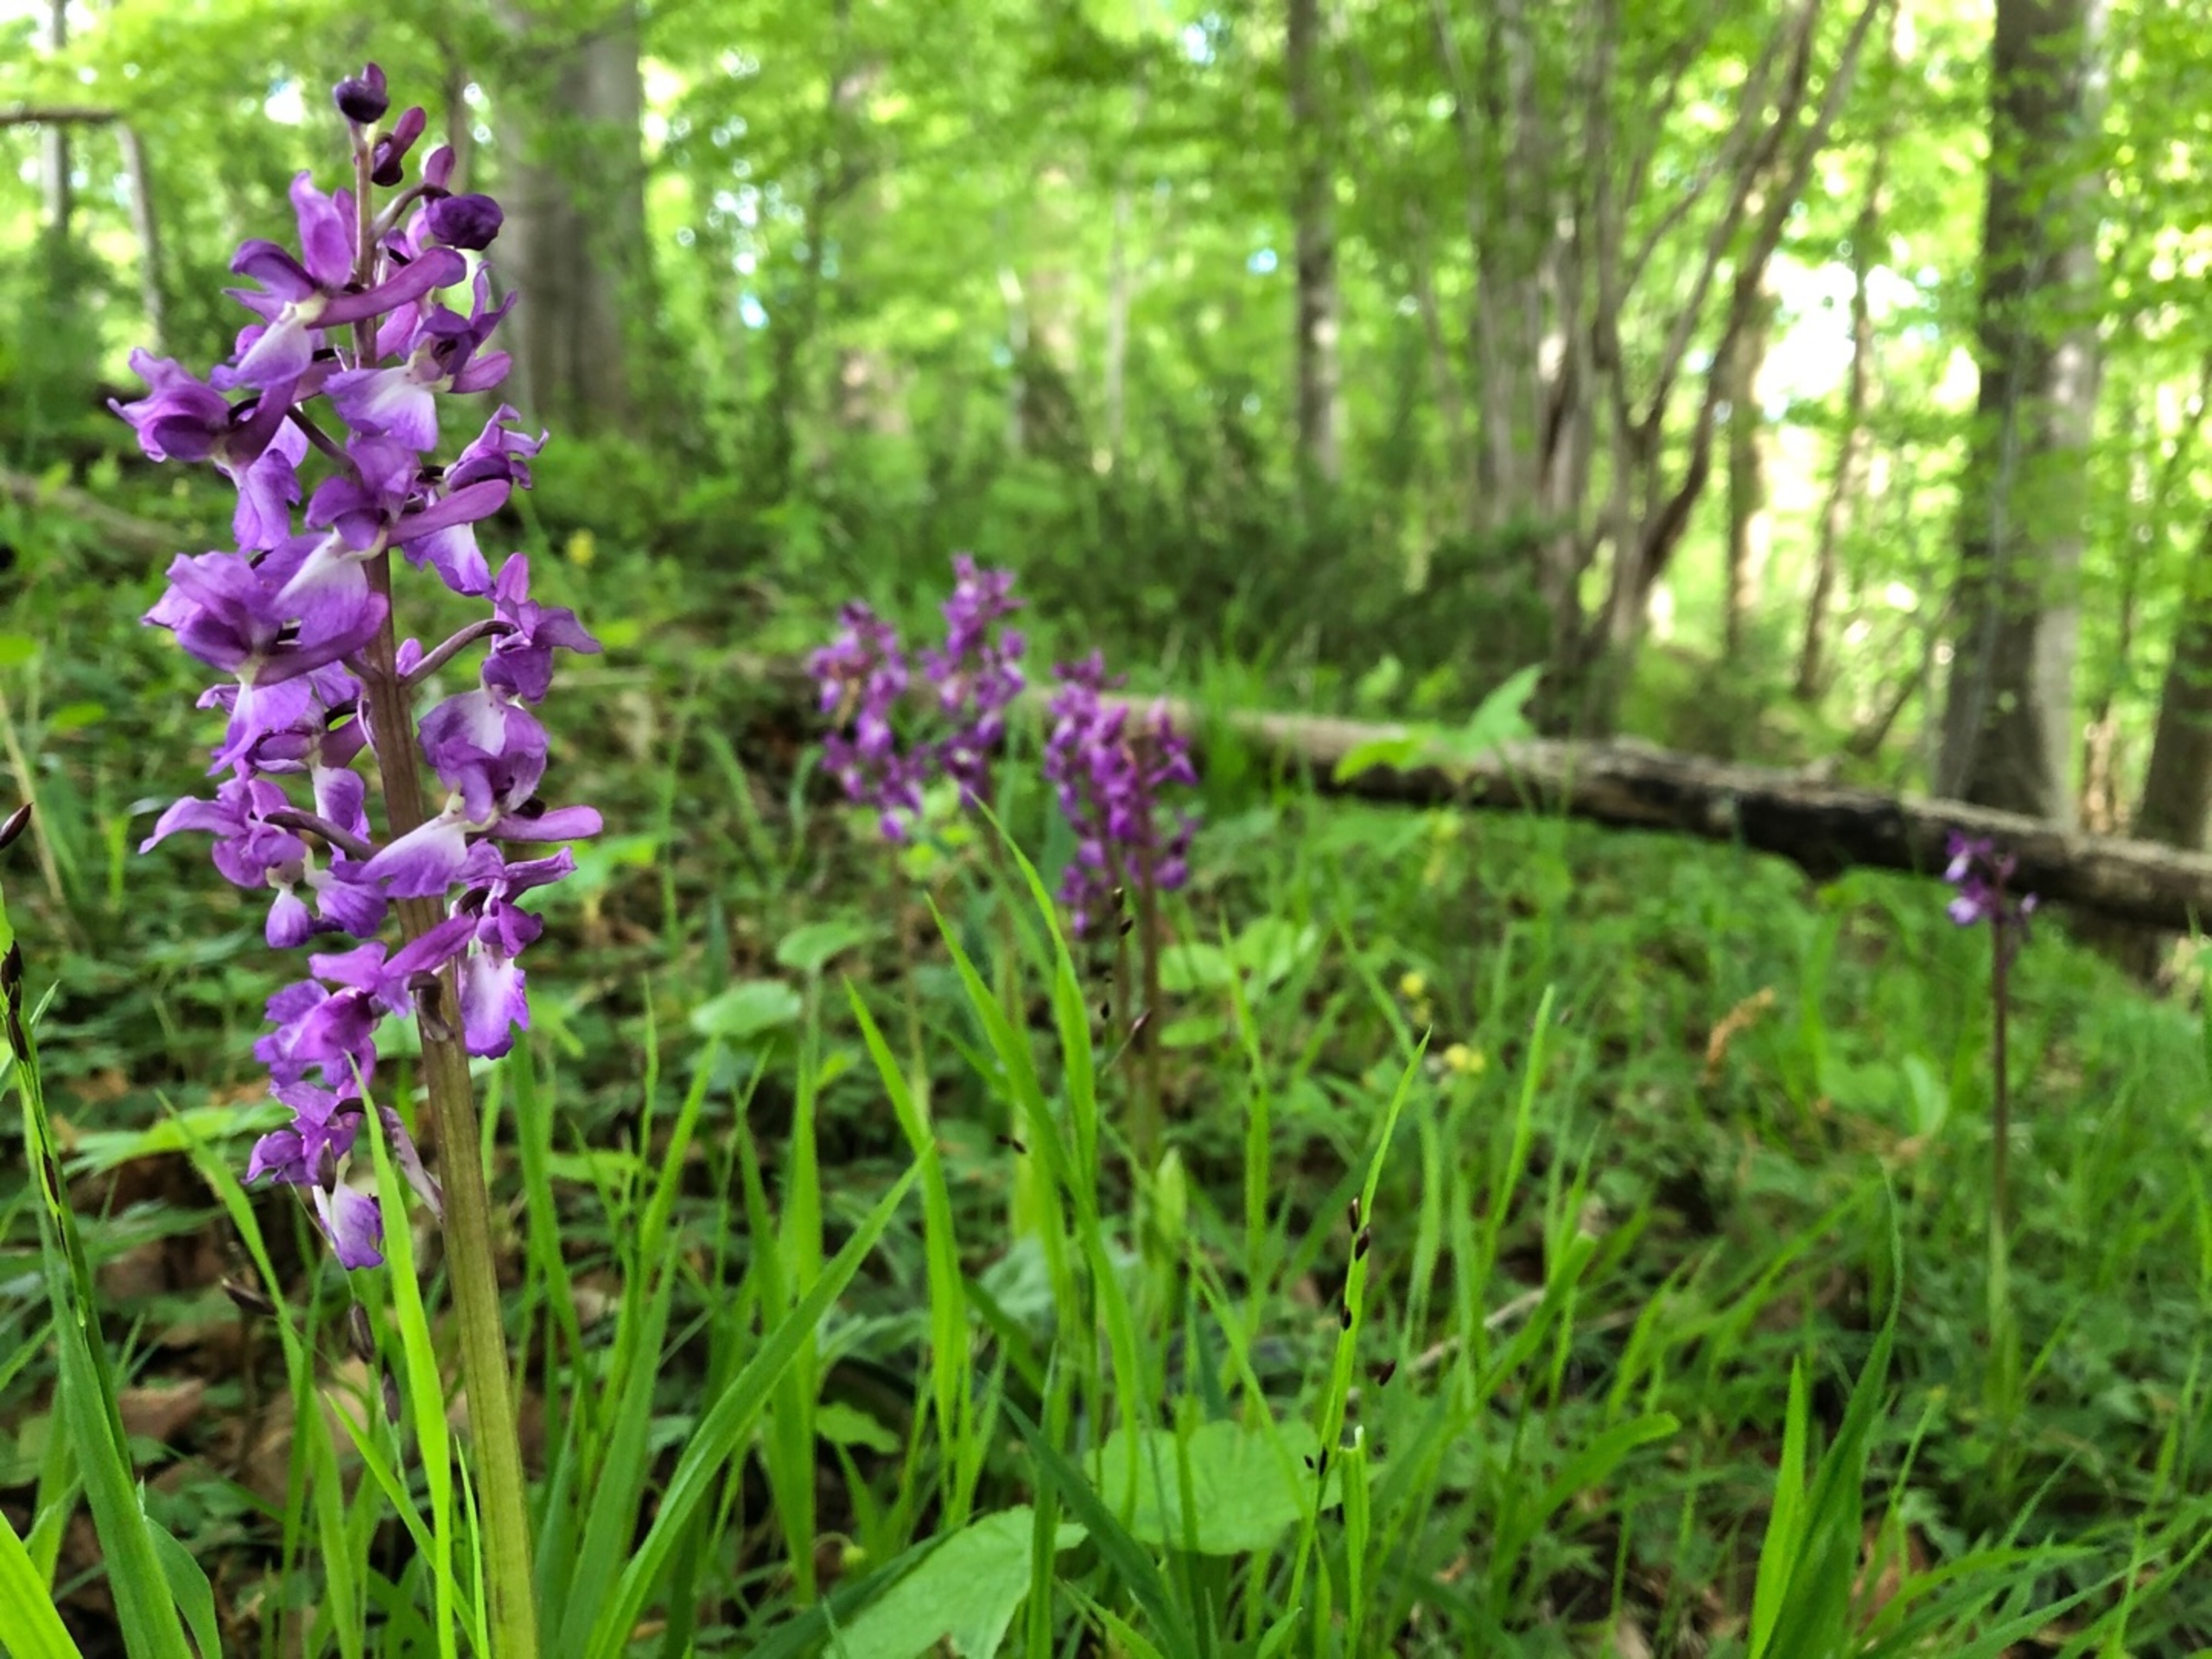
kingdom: Plantae
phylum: Tracheophyta
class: Liliopsida
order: Asparagales
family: Orchidaceae
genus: Orchis
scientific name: Orchis mascula
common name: Tyndakset gøgeurt
